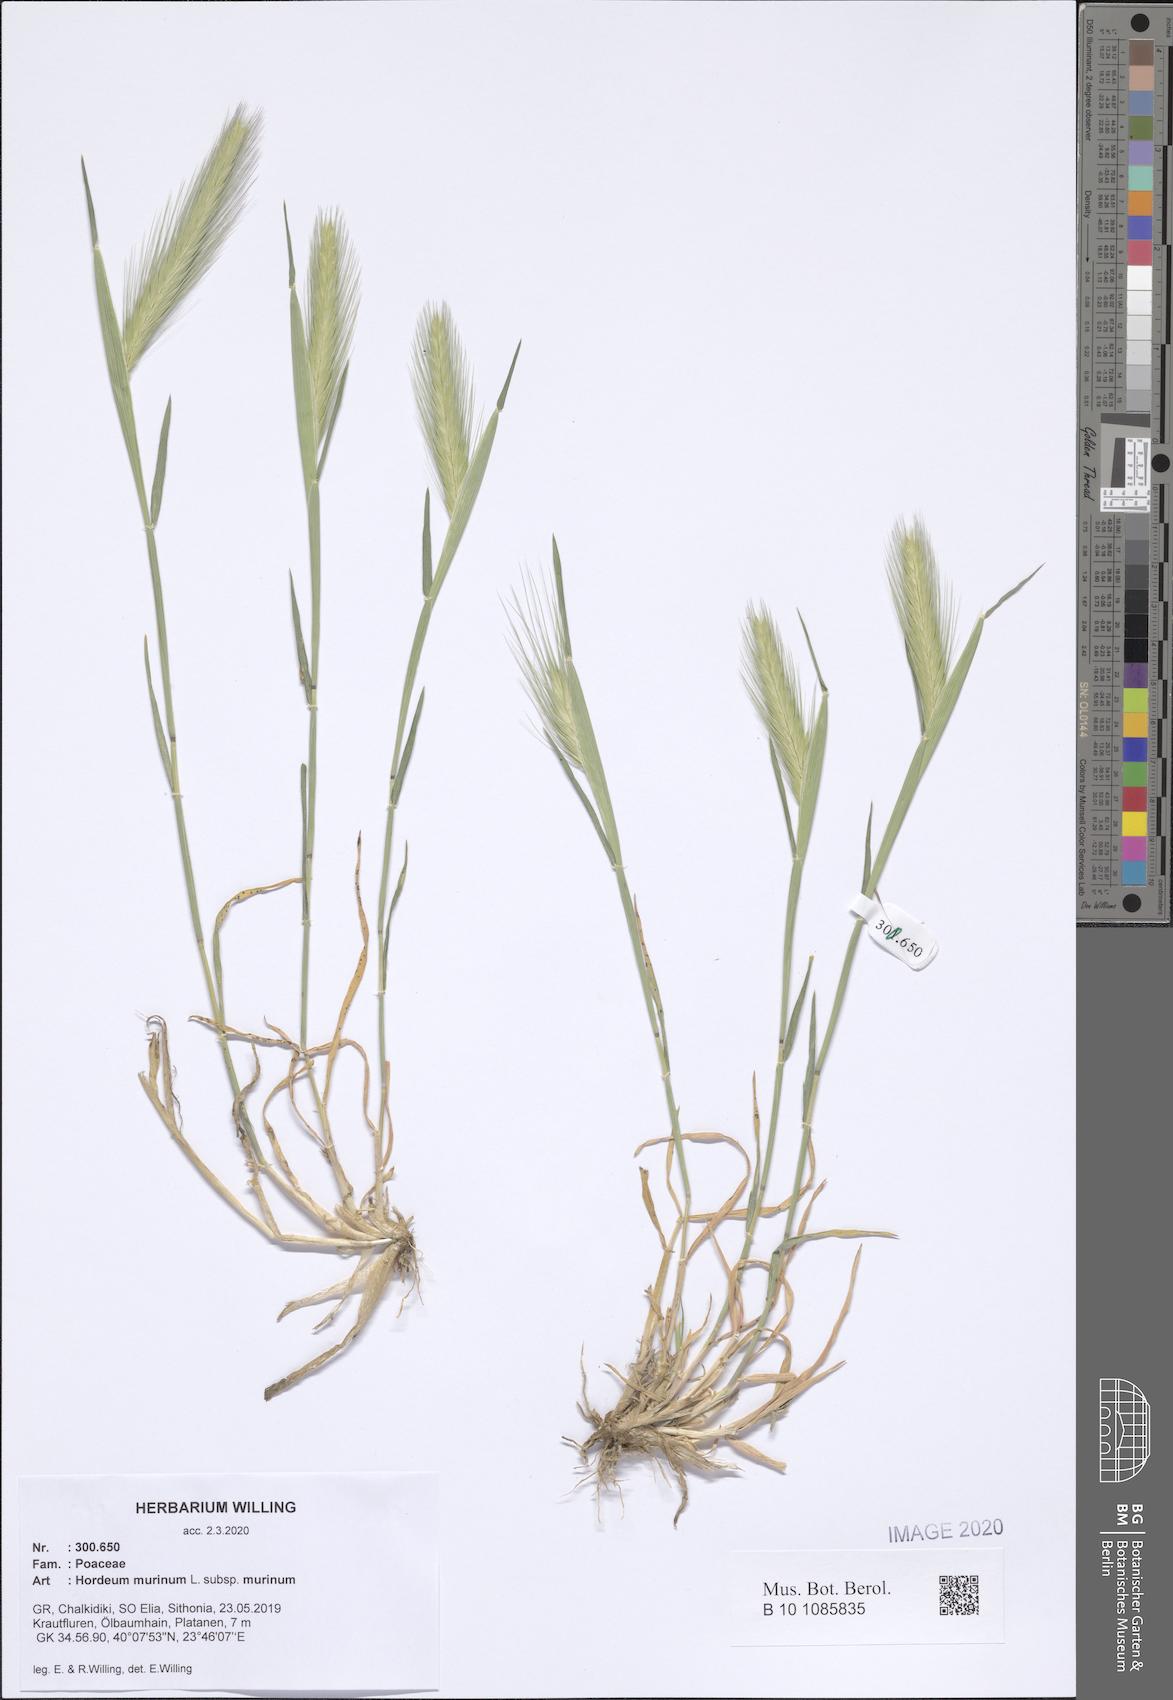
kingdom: Plantae
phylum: Tracheophyta
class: Liliopsida
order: Poales
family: Poaceae
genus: Hordeum
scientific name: Hordeum murinum
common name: Wall barley
